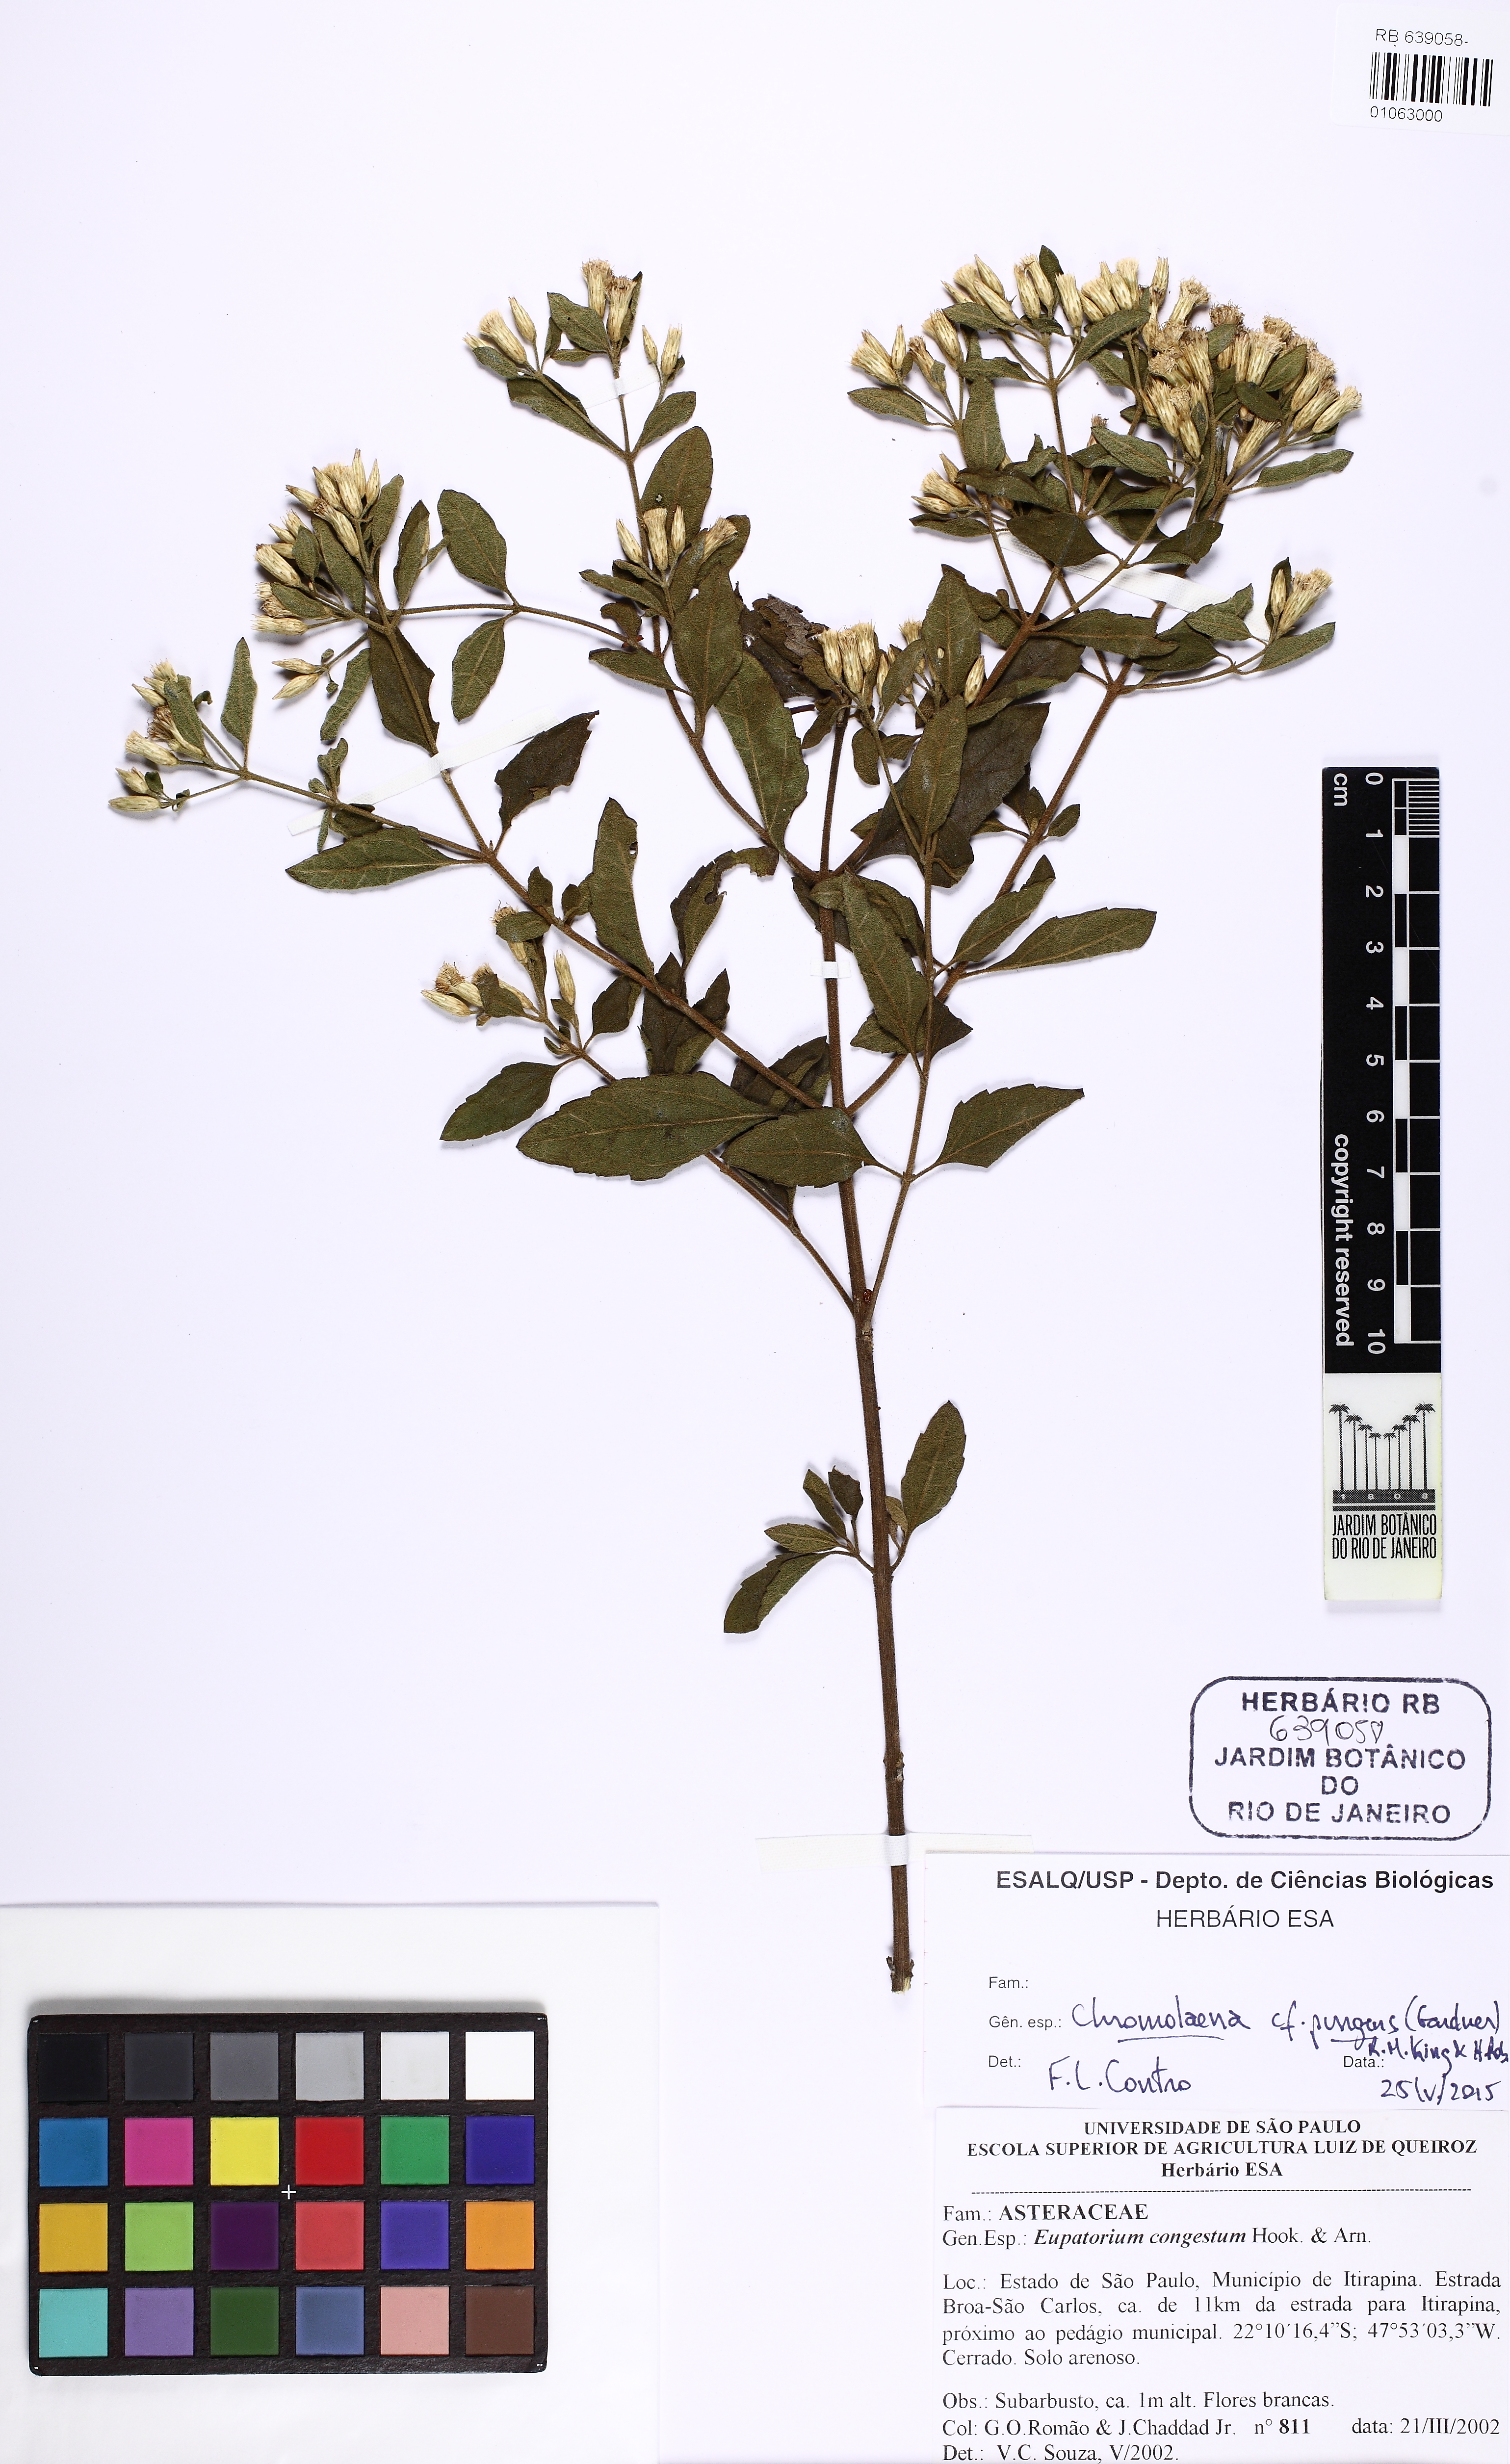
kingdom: Plantae
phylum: Tracheophyta
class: Magnoliopsida
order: Asterales
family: Asteraceae
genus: Chromolaena
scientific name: Chromolaena pungens
